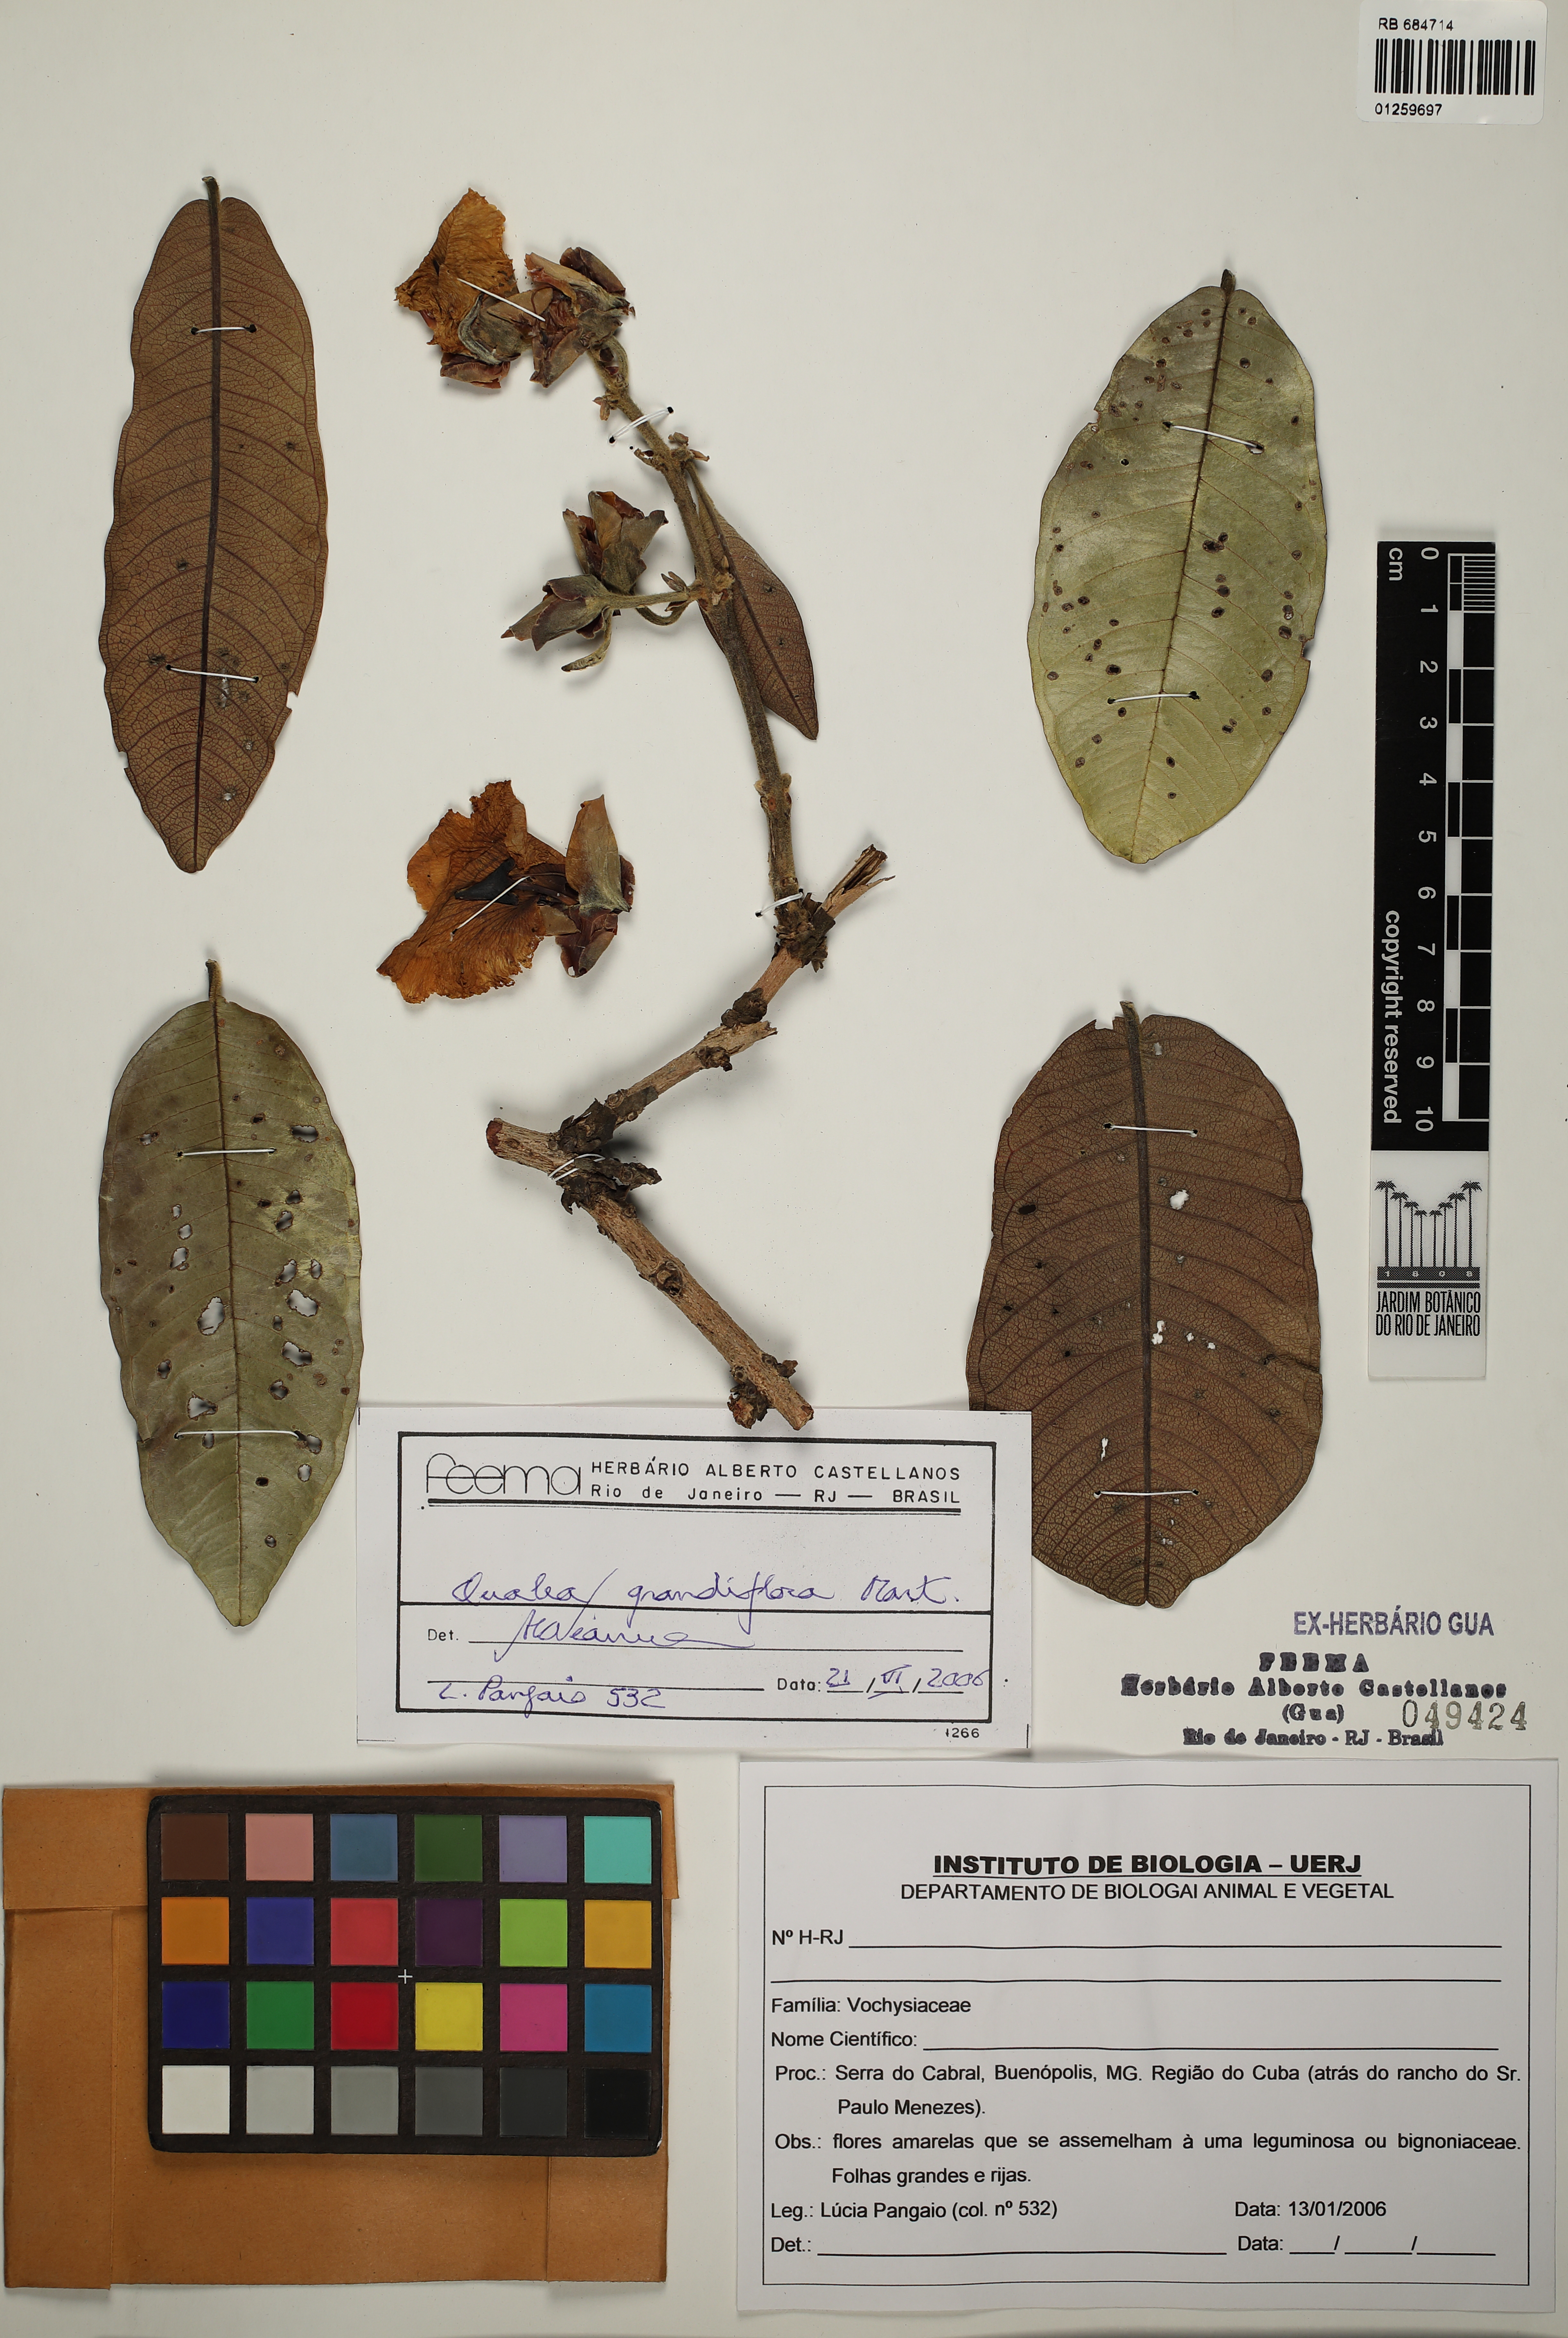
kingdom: Plantae
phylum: Tracheophyta
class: Magnoliopsida
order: Myrtales
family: Vochysiaceae
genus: Qualea
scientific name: Qualea grandiflora
